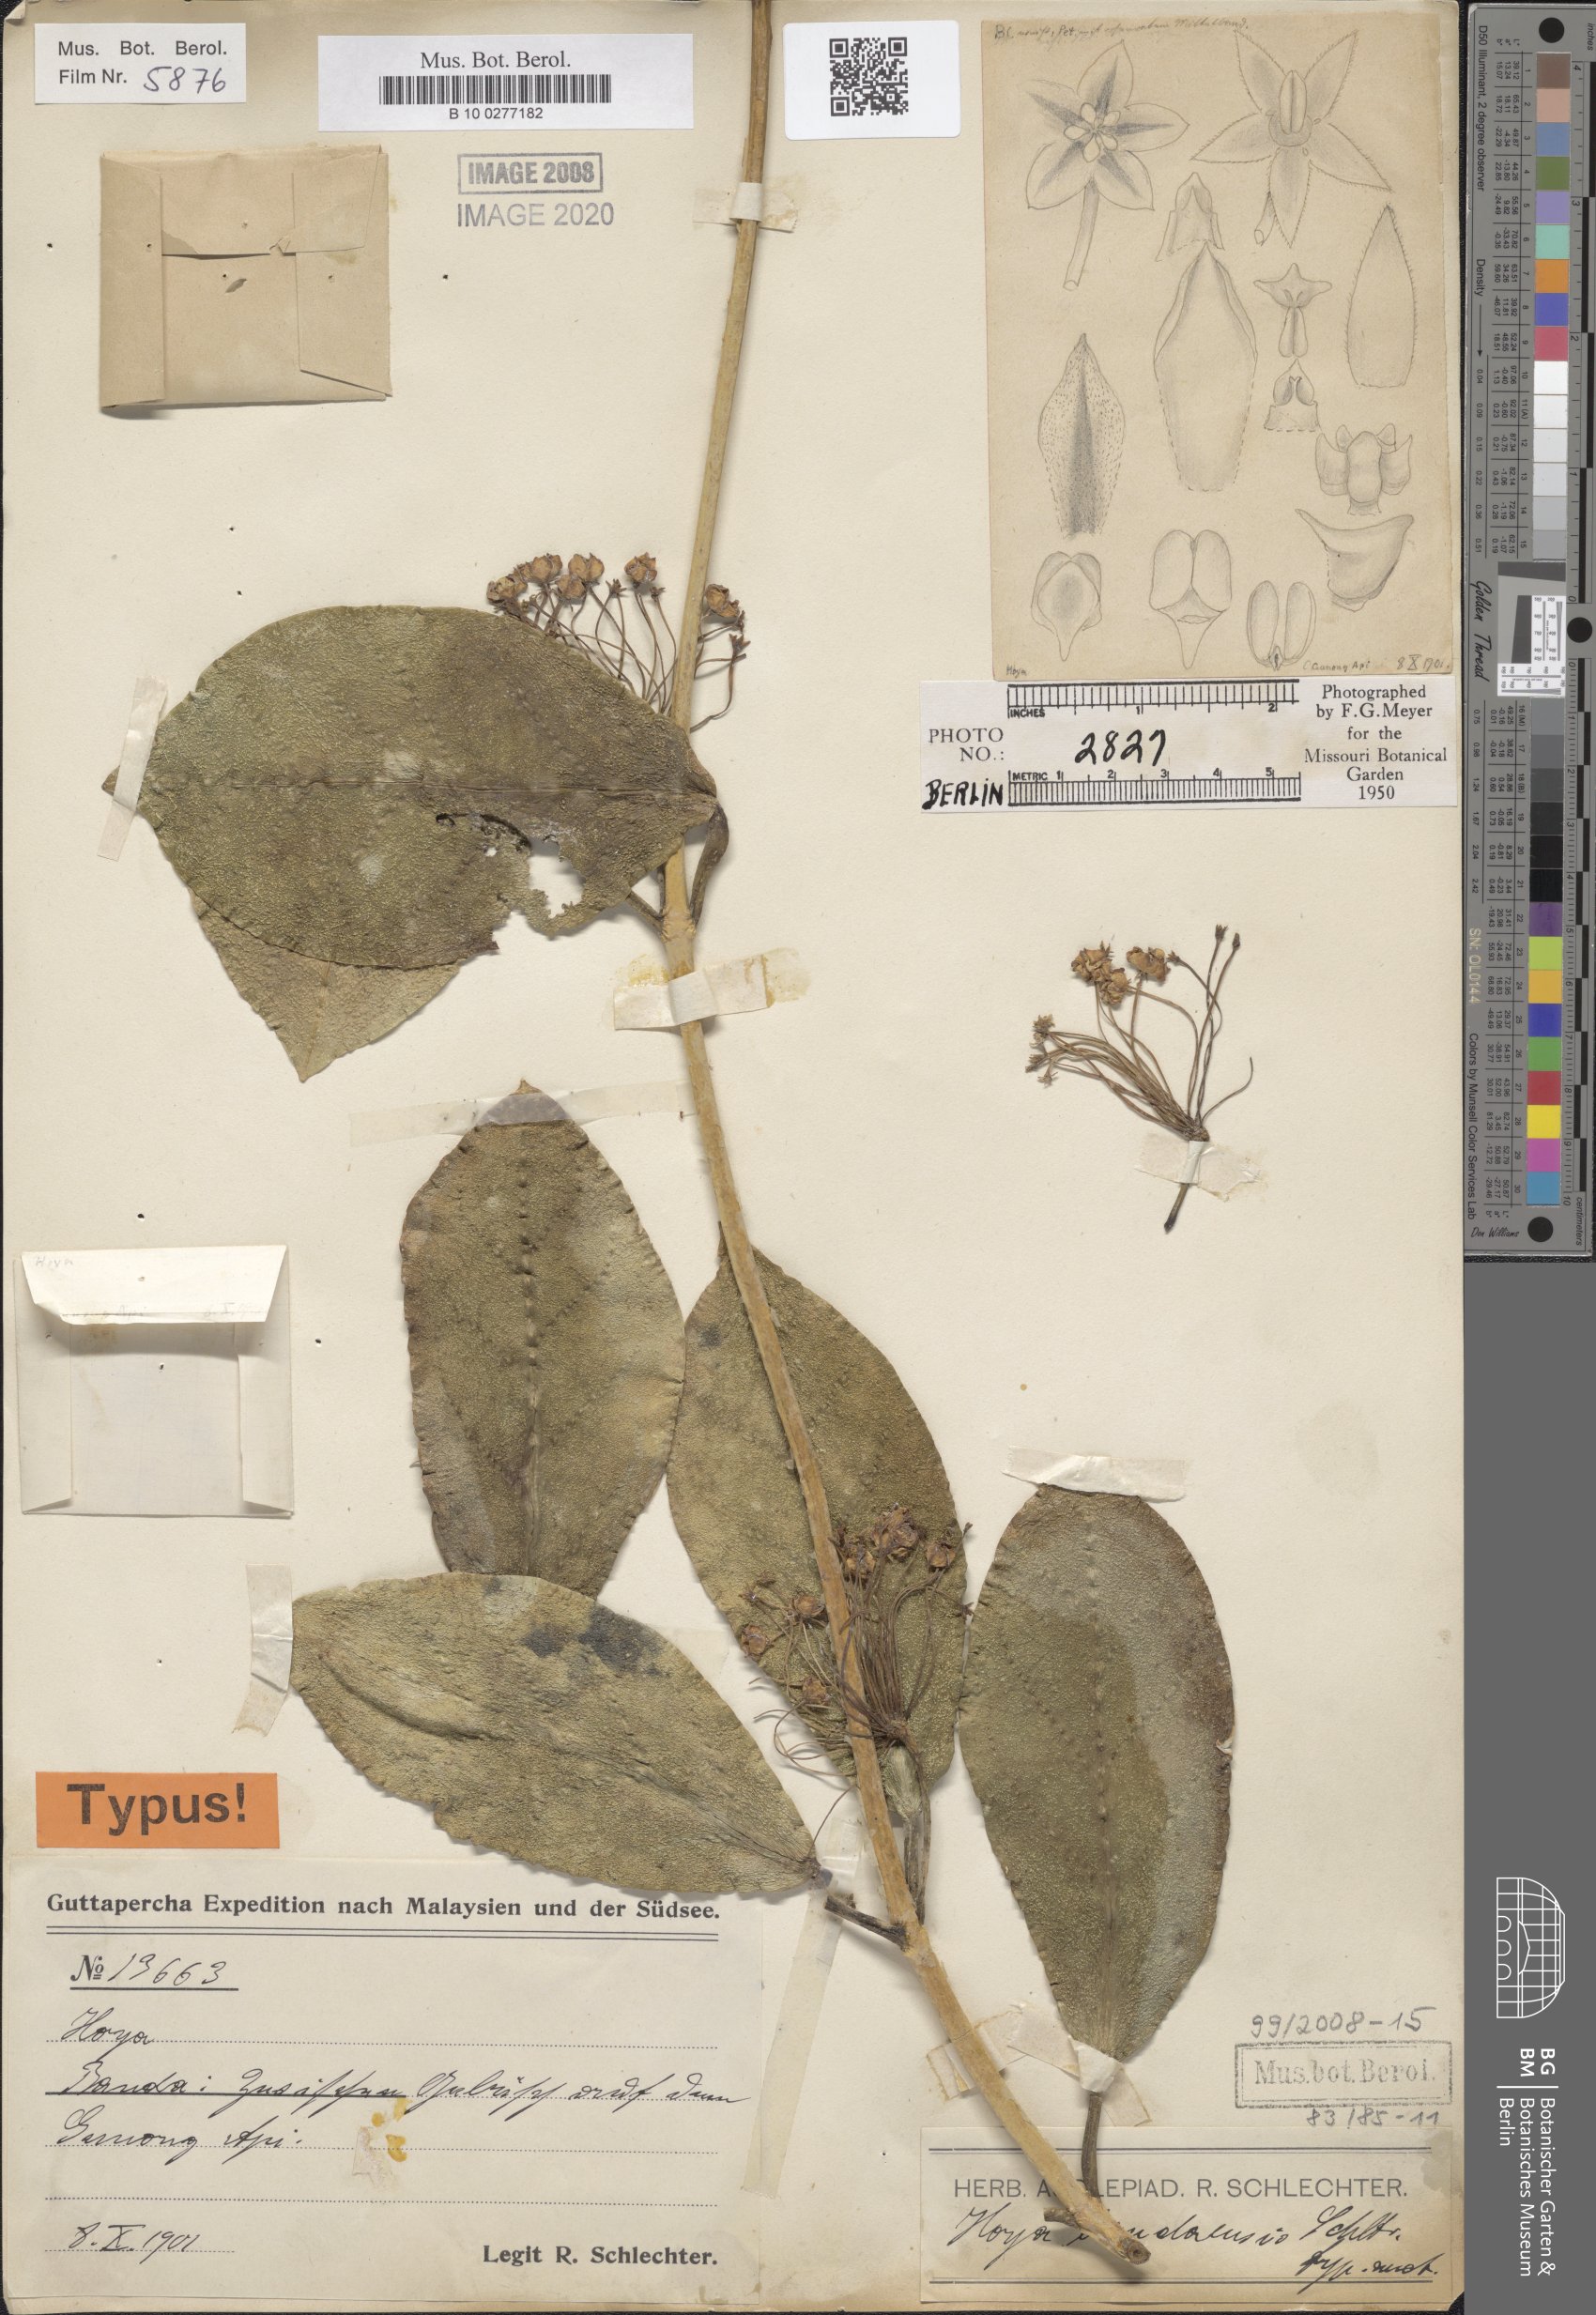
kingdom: Plantae
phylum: Tracheophyta
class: Magnoliopsida
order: Gentianales
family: Apocynaceae
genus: Hoya
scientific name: Hoya bandaensis
